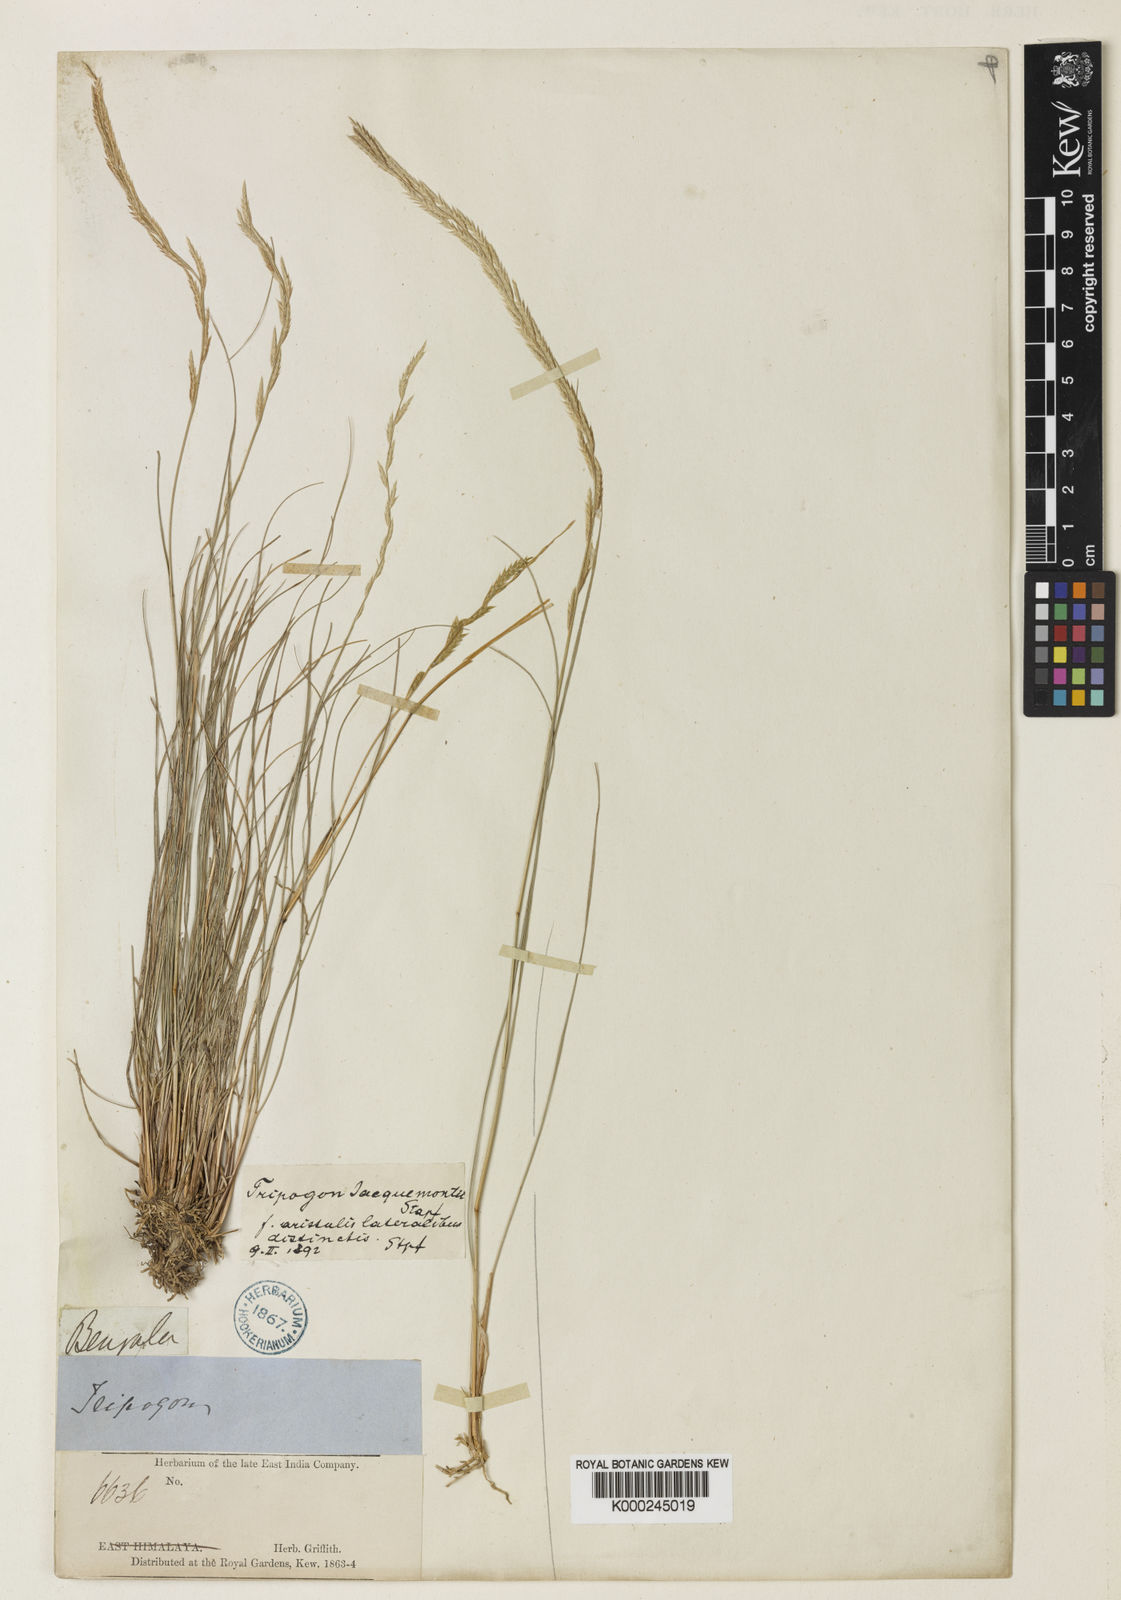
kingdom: Plantae
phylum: Tracheophyta
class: Liliopsida
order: Poales
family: Poaceae
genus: Tripogon
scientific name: Tripogon jacquemontii
